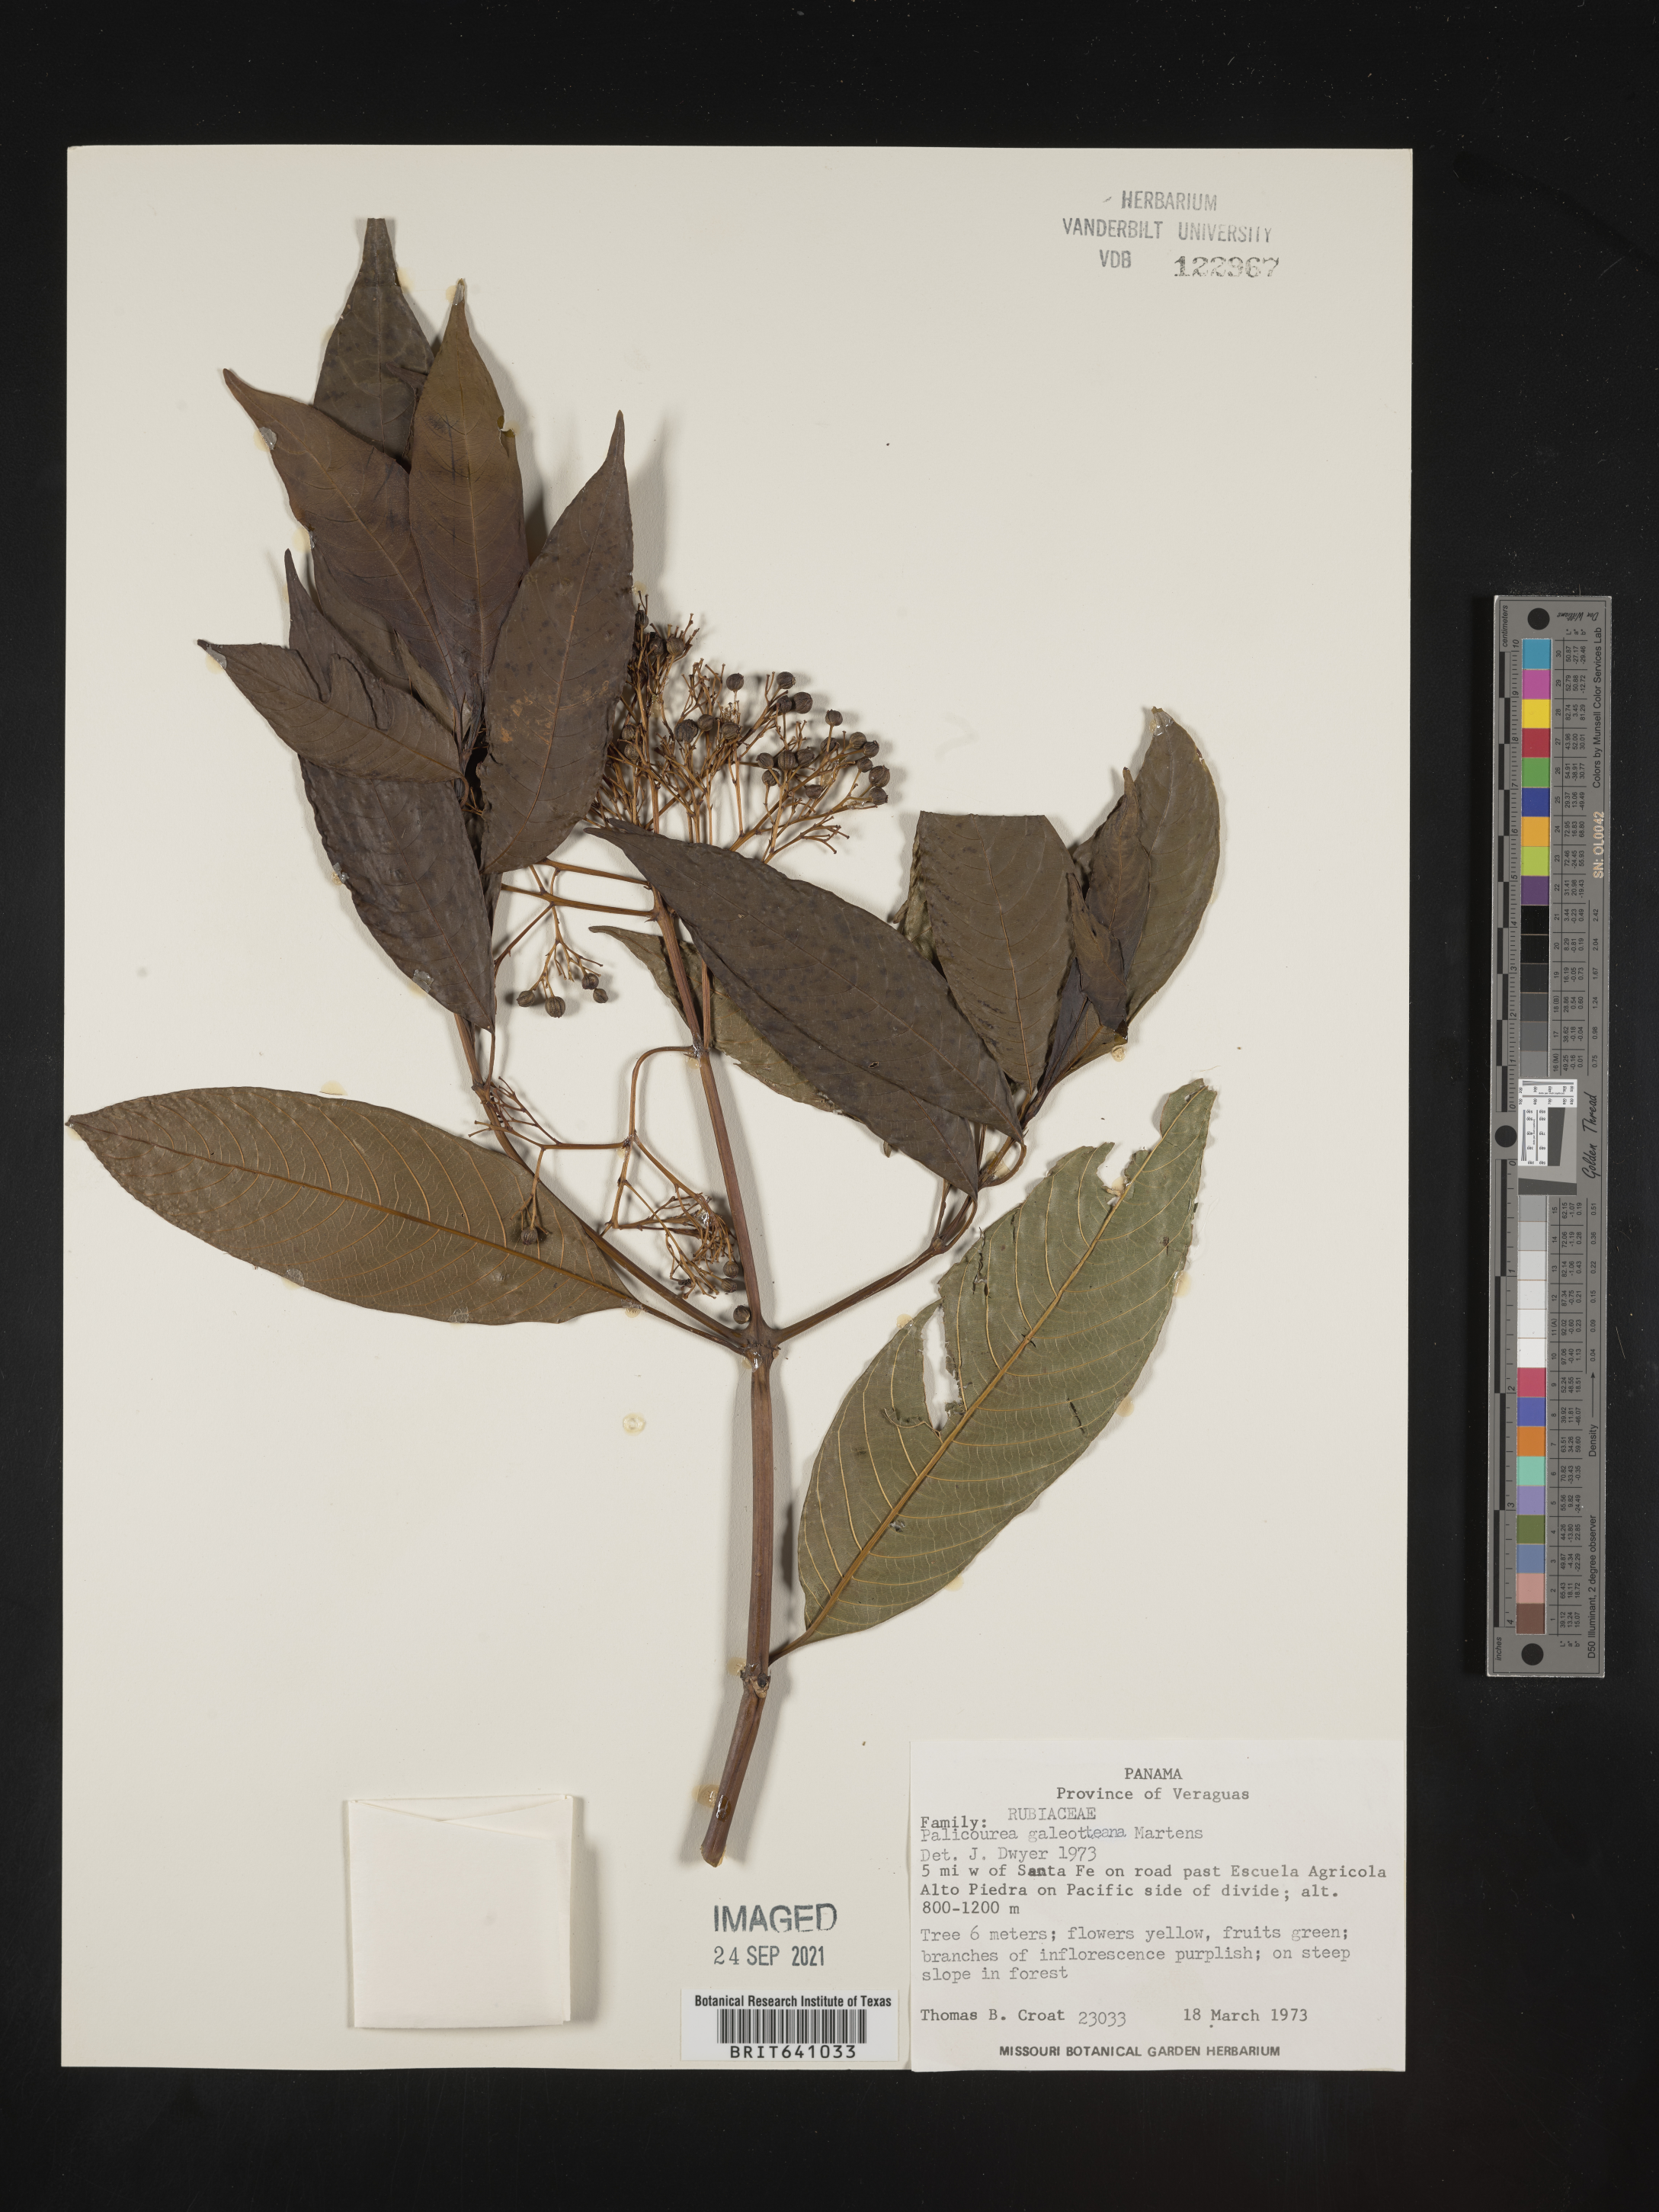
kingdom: Plantae
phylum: Tracheophyta
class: Magnoliopsida
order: Gentianales
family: Rubiaceae
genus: Palicourea
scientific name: Palicourea
